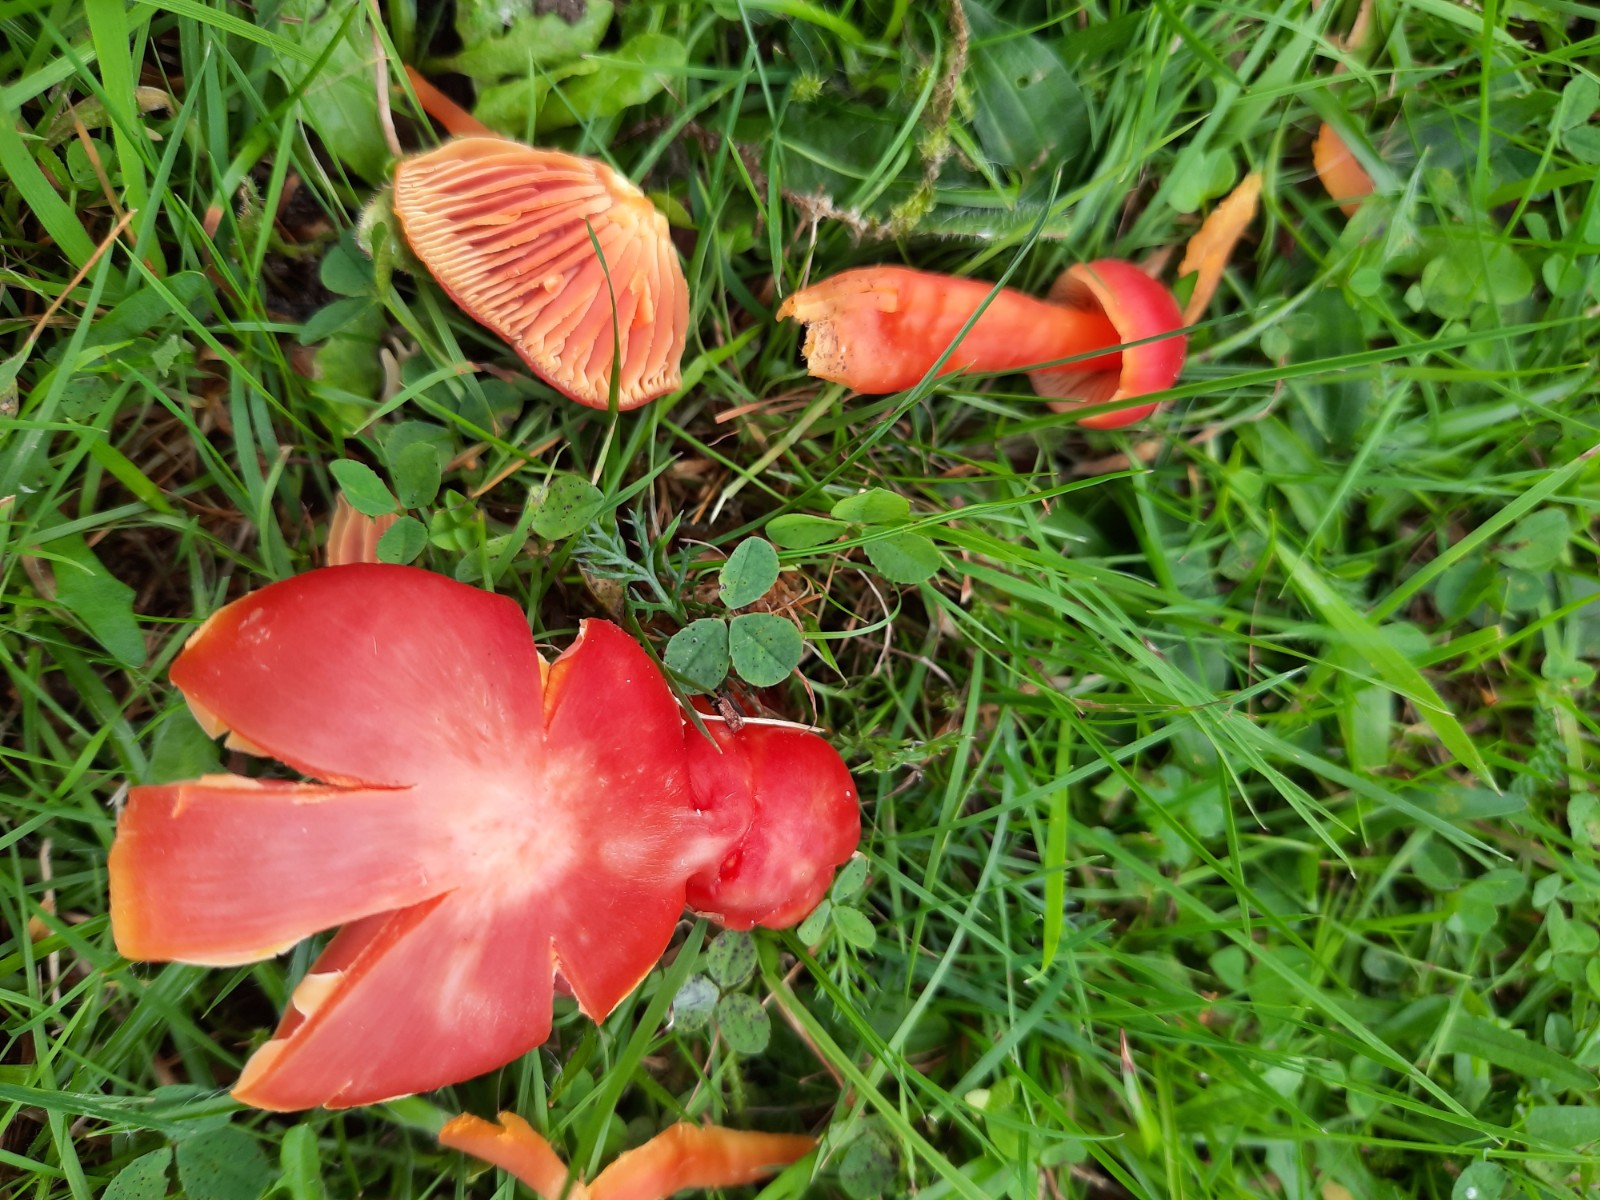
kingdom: Fungi
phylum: Basidiomycota
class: Agaricomycetes
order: Agaricales
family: Hygrophoraceae
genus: Hygrocybe
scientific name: Hygrocybe
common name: vokshat
